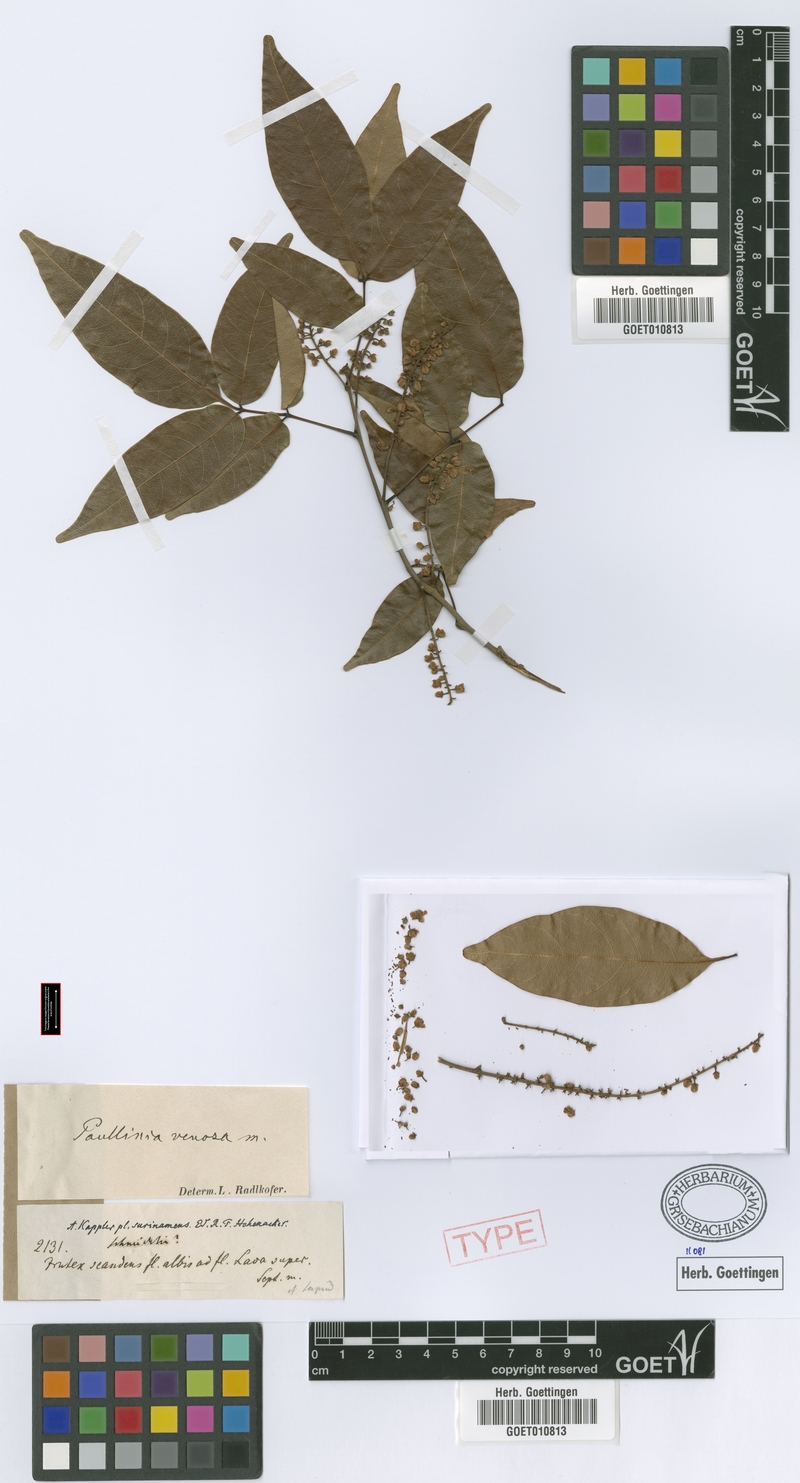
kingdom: Plantae
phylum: Tracheophyta
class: Magnoliopsida
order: Sapindales
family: Sapindaceae
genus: Paullinia
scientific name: Paullinia venosa
